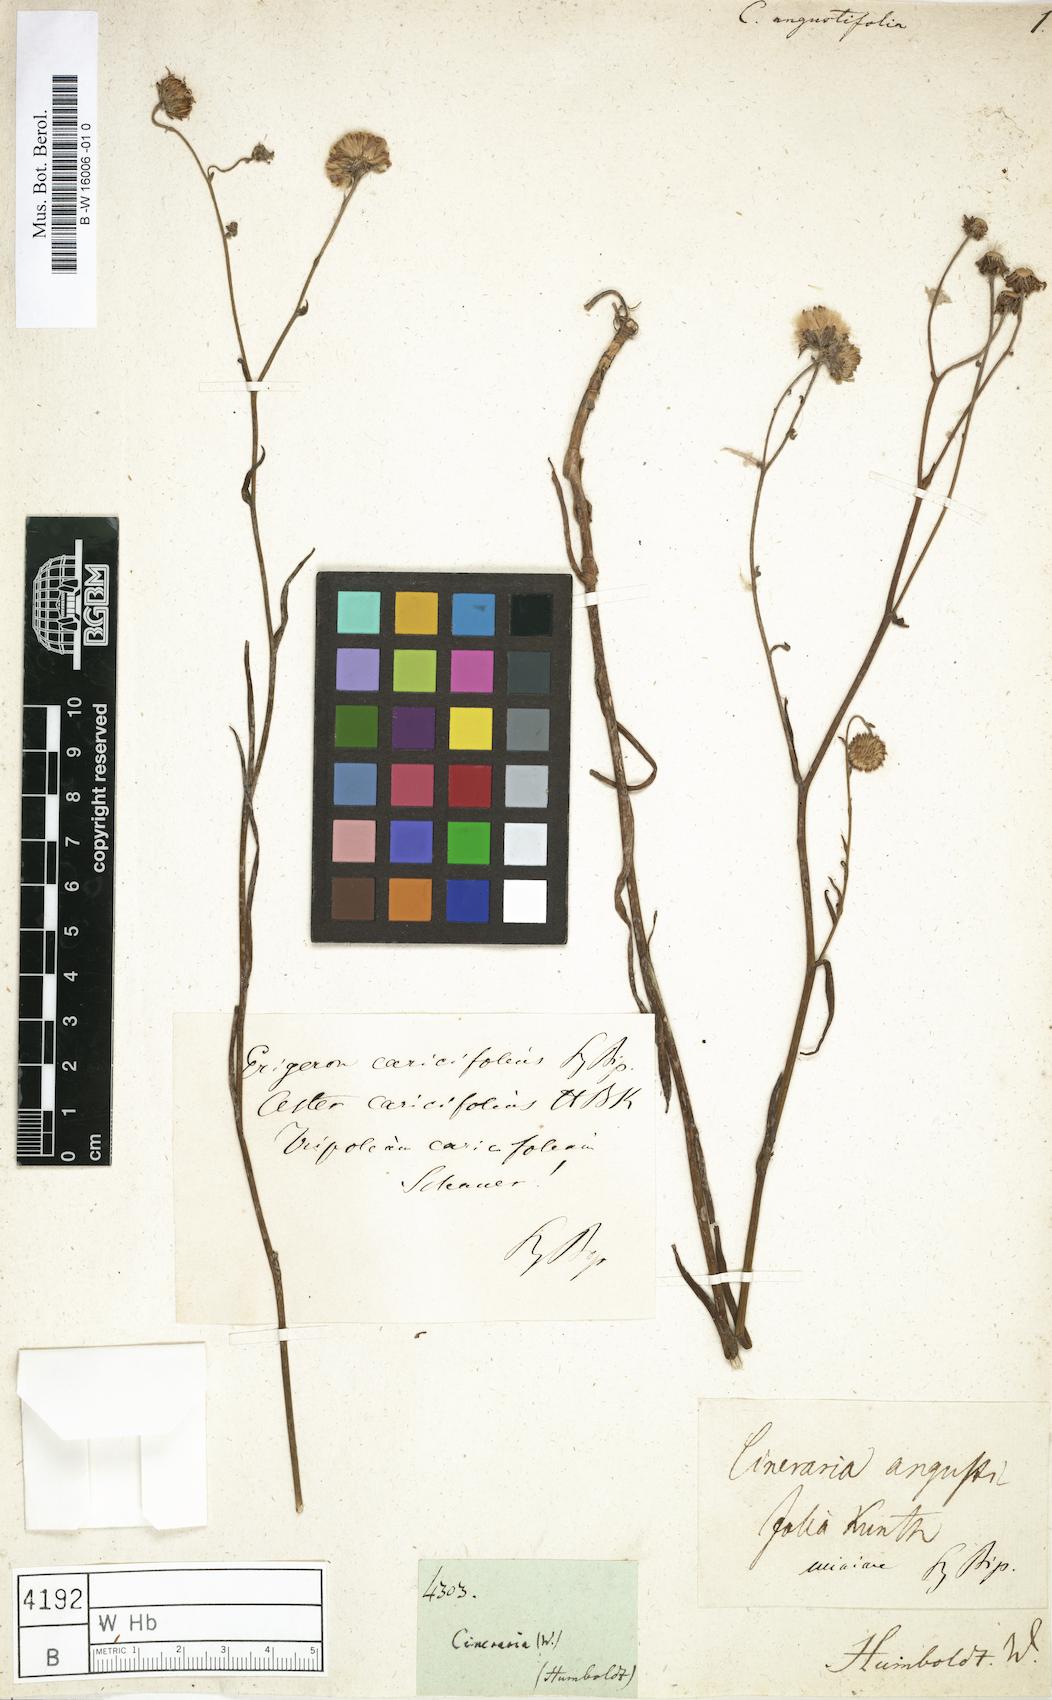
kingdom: Plantae
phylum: Tracheophyta
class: Magnoliopsida
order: Asterales
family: Asteraceae
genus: Barkleyanthus
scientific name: Barkleyanthus salicifolius
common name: Willow ragwort
